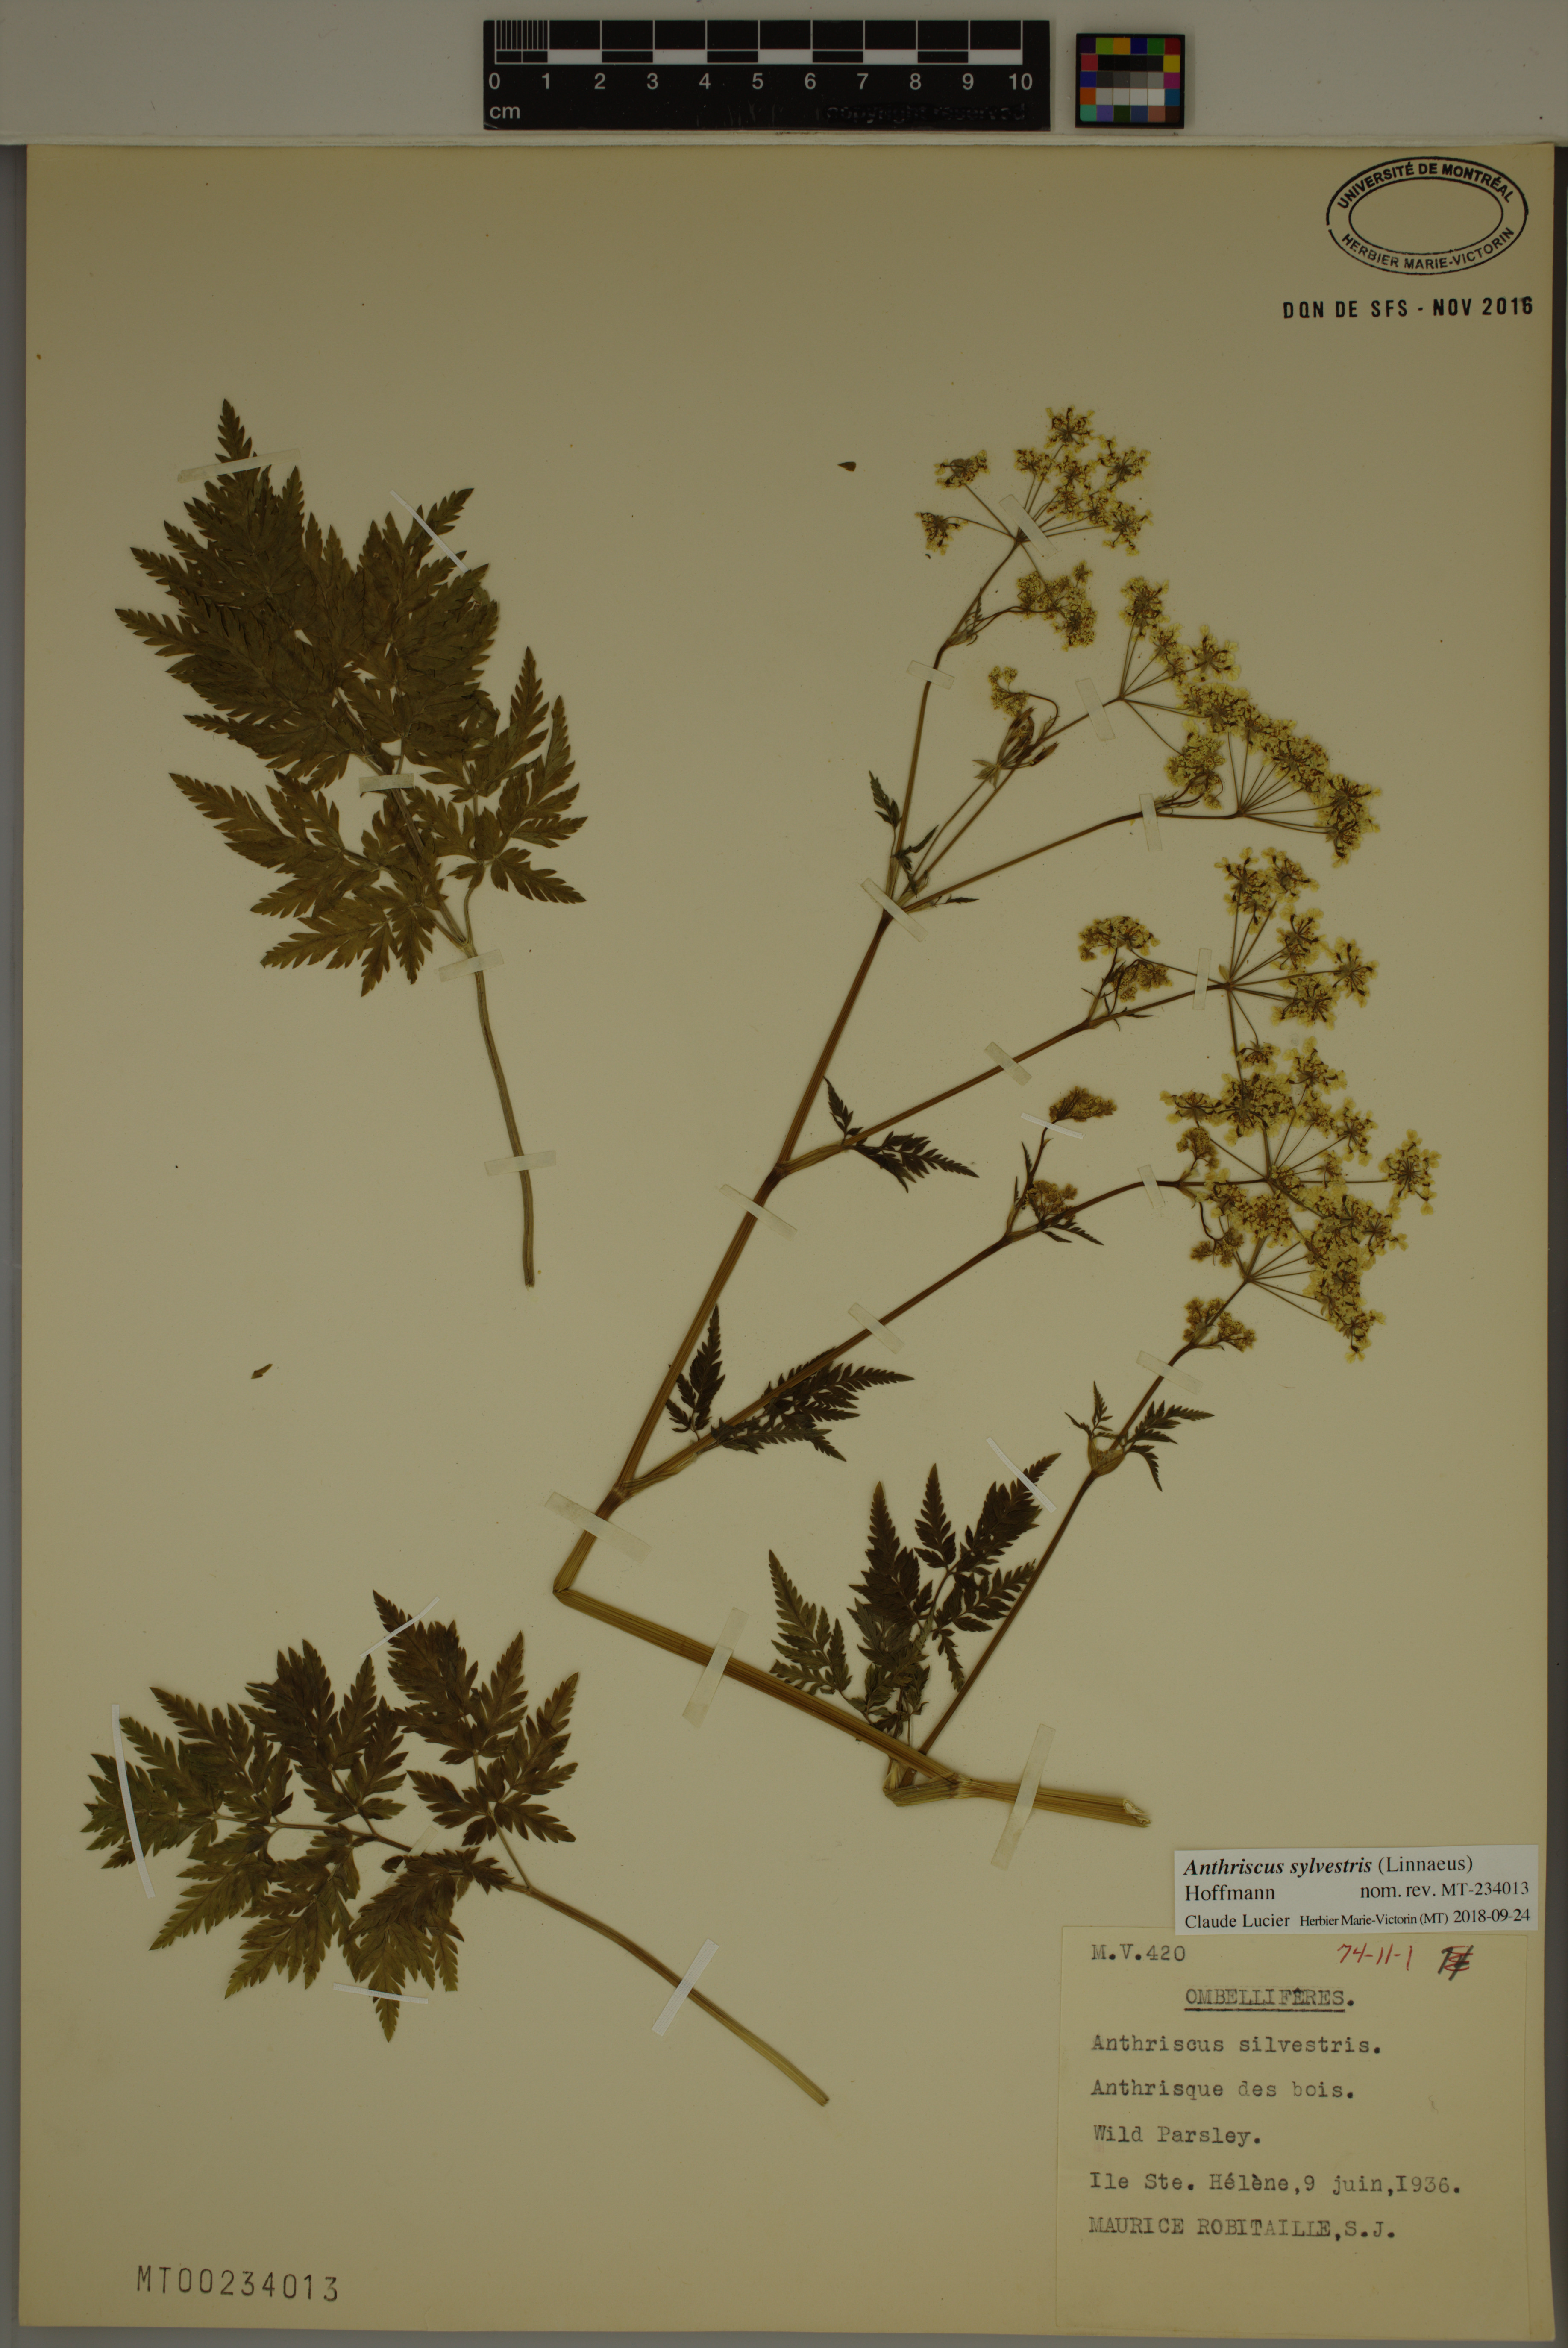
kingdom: Plantae
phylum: Tracheophyta
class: Magnoliopsida
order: Apiales
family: Apiaceae
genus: Anthriscus
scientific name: Anthriscus sylvestris
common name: Cow parsley
